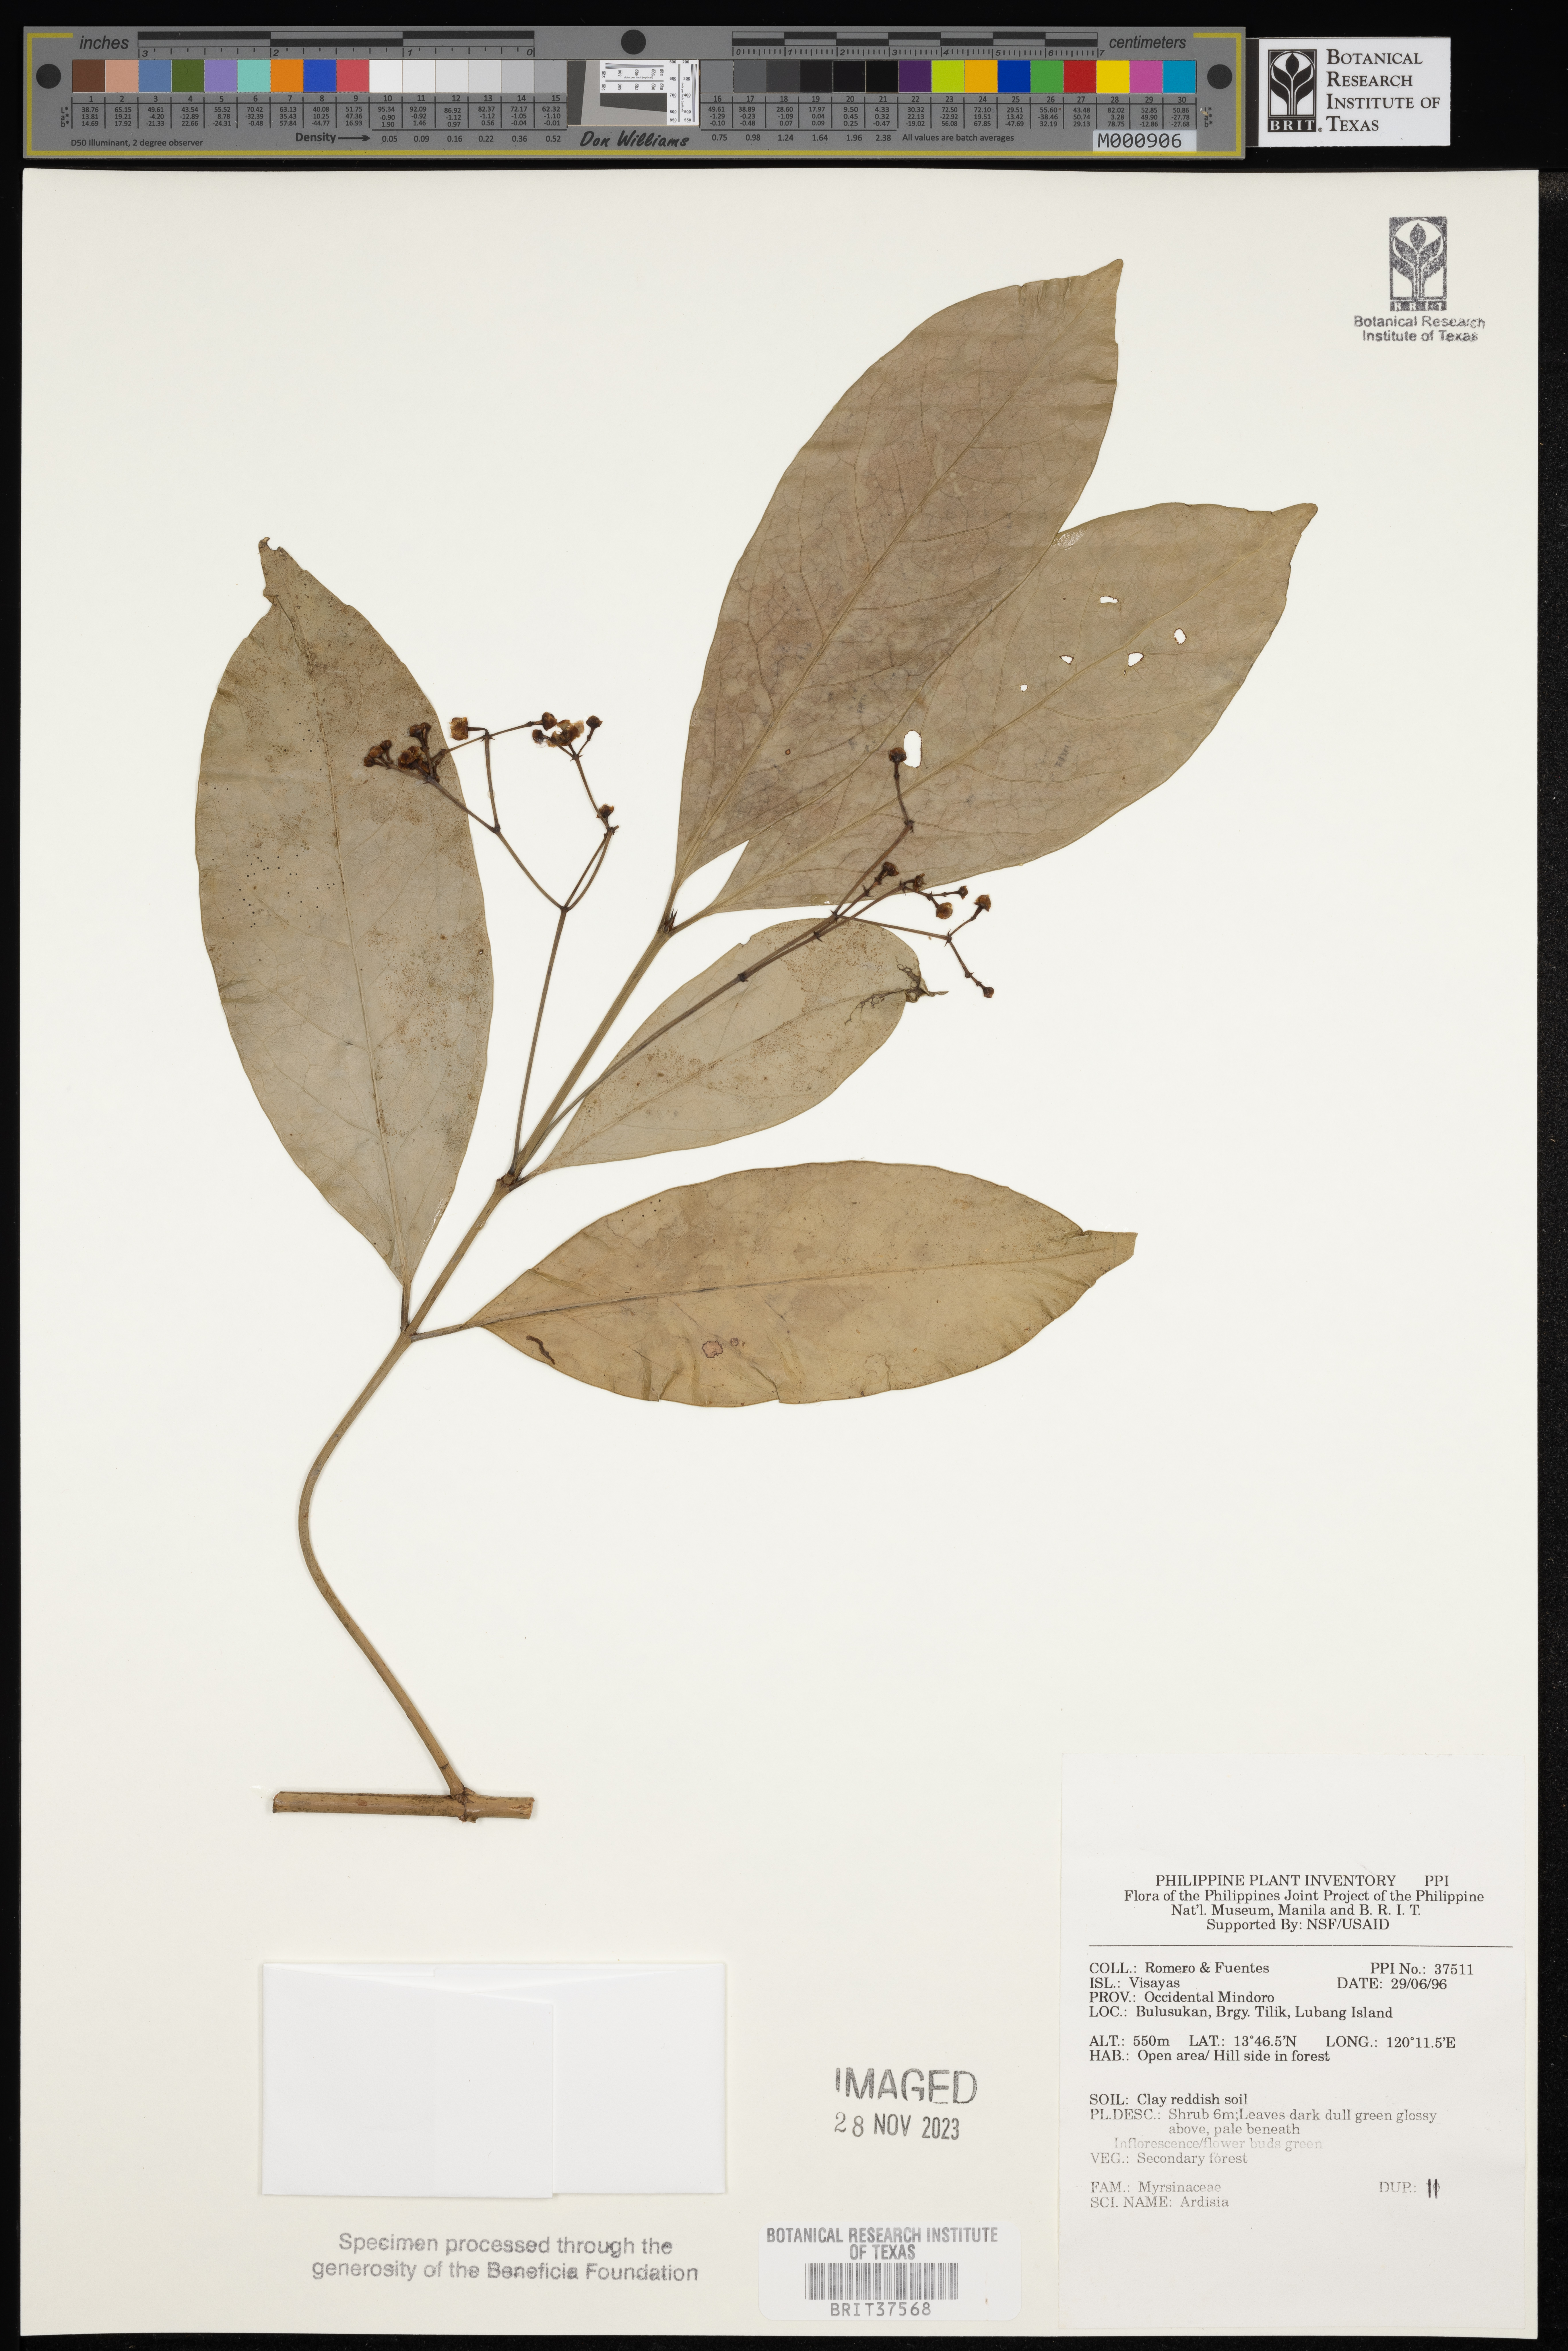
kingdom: Plantae
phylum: Tracheophyta
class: Magnoliopsida
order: Ericales
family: Primulaceae
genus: Ardisia
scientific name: Ardisia
